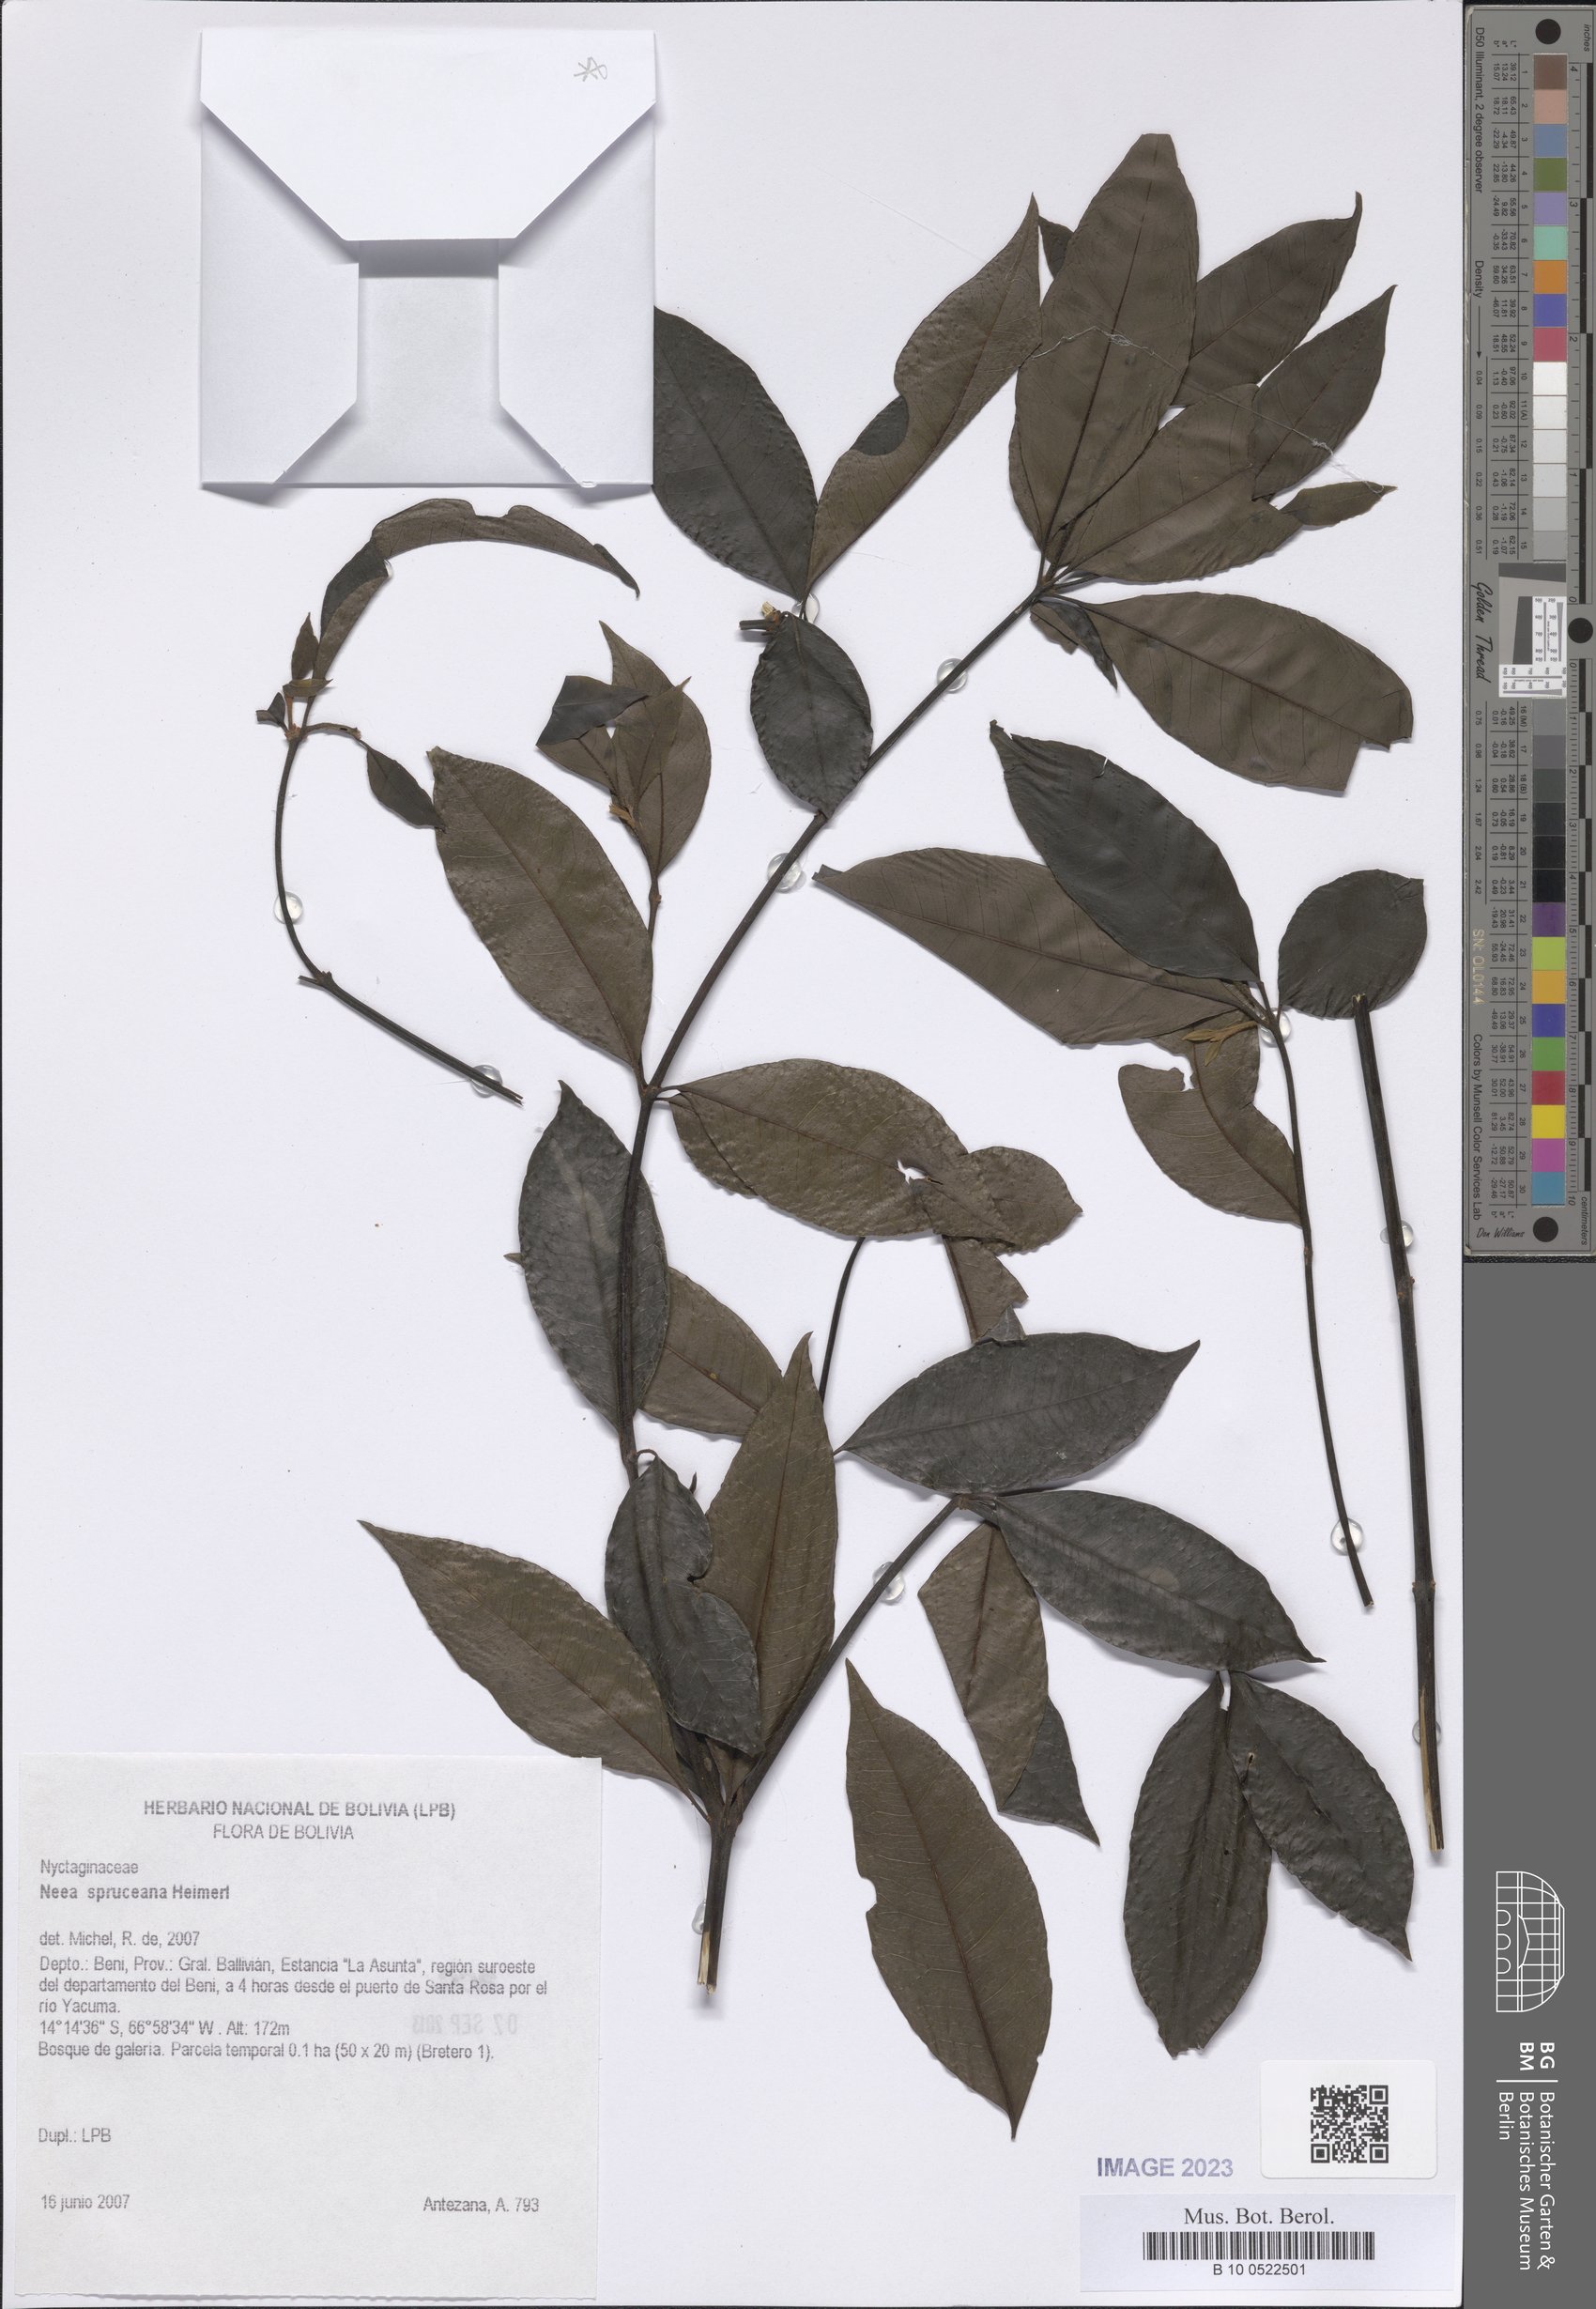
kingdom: Plantae
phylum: Tracheophyta
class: Magnoliopsida
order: Caryophyllales
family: Nyctaginaceae
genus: Neea
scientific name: Neea spruceana
